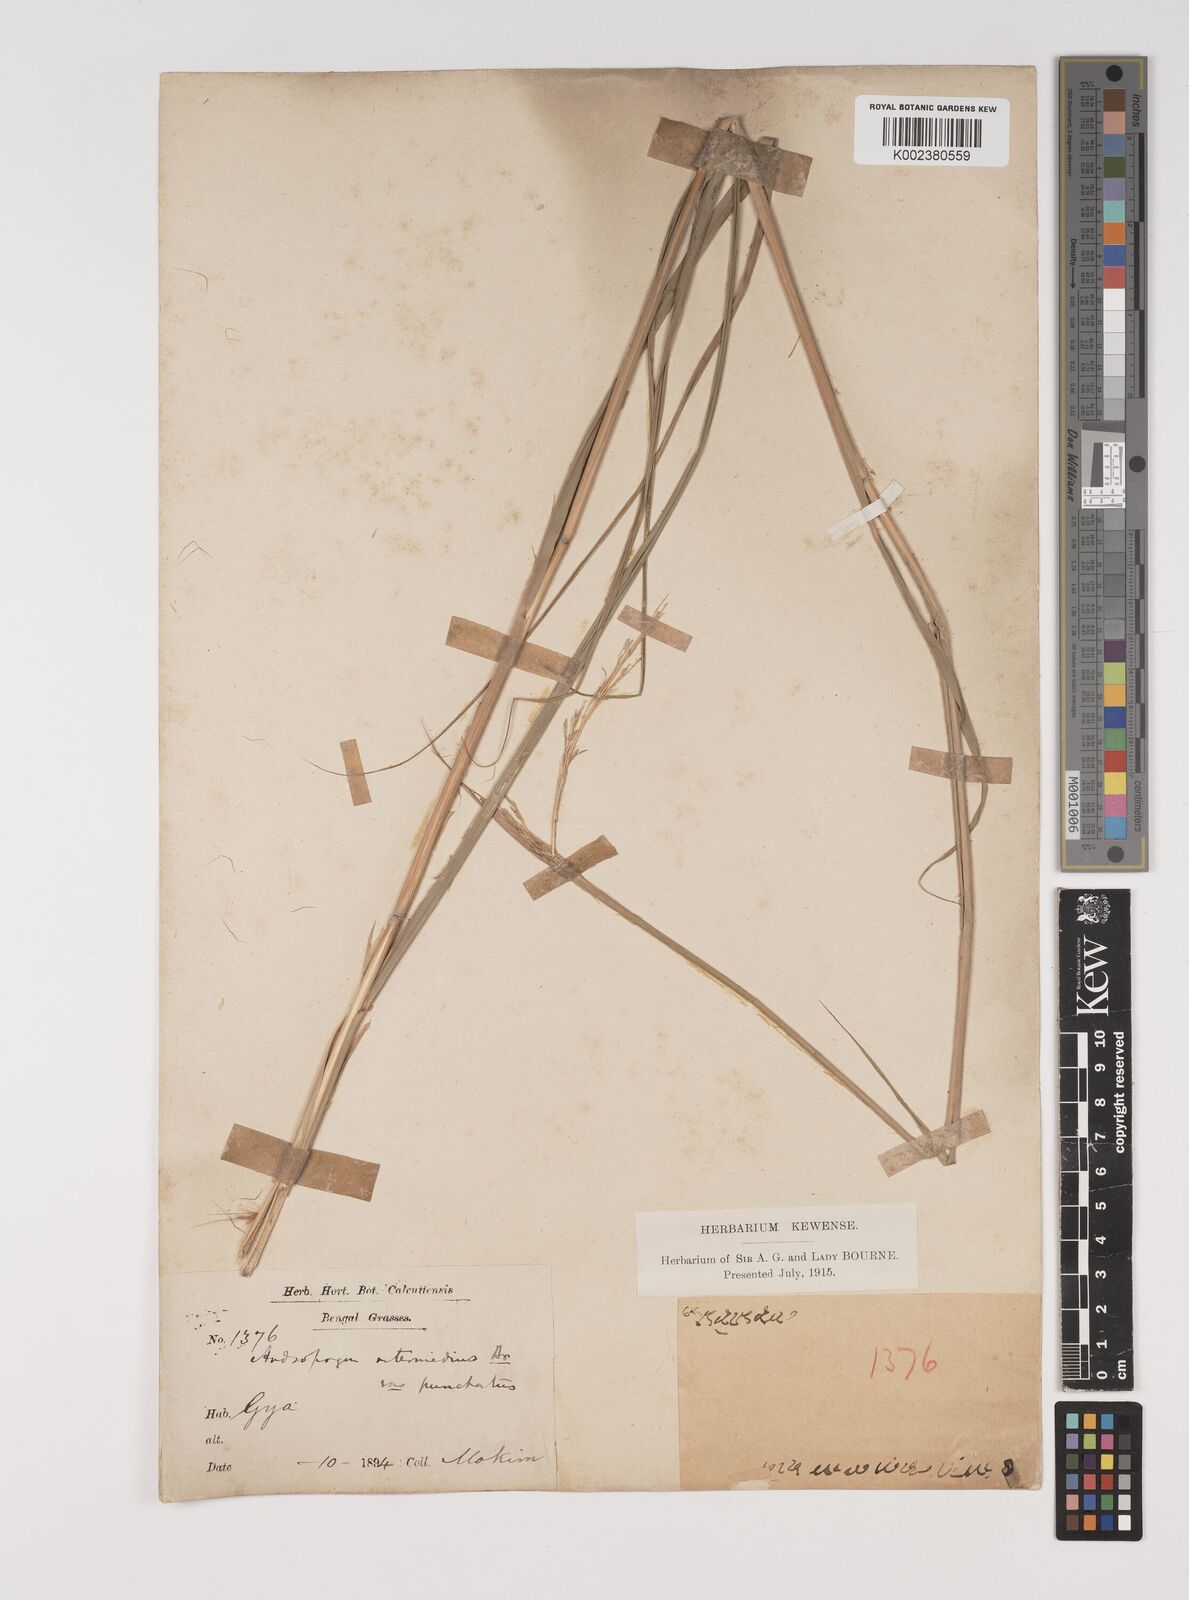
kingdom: Plantae
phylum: Tracheophyta
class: Liliopsida
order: Poales
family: Poaceae
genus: Bothriochloa
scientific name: Bothriochloa bladhii
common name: Caucasian bluestem
